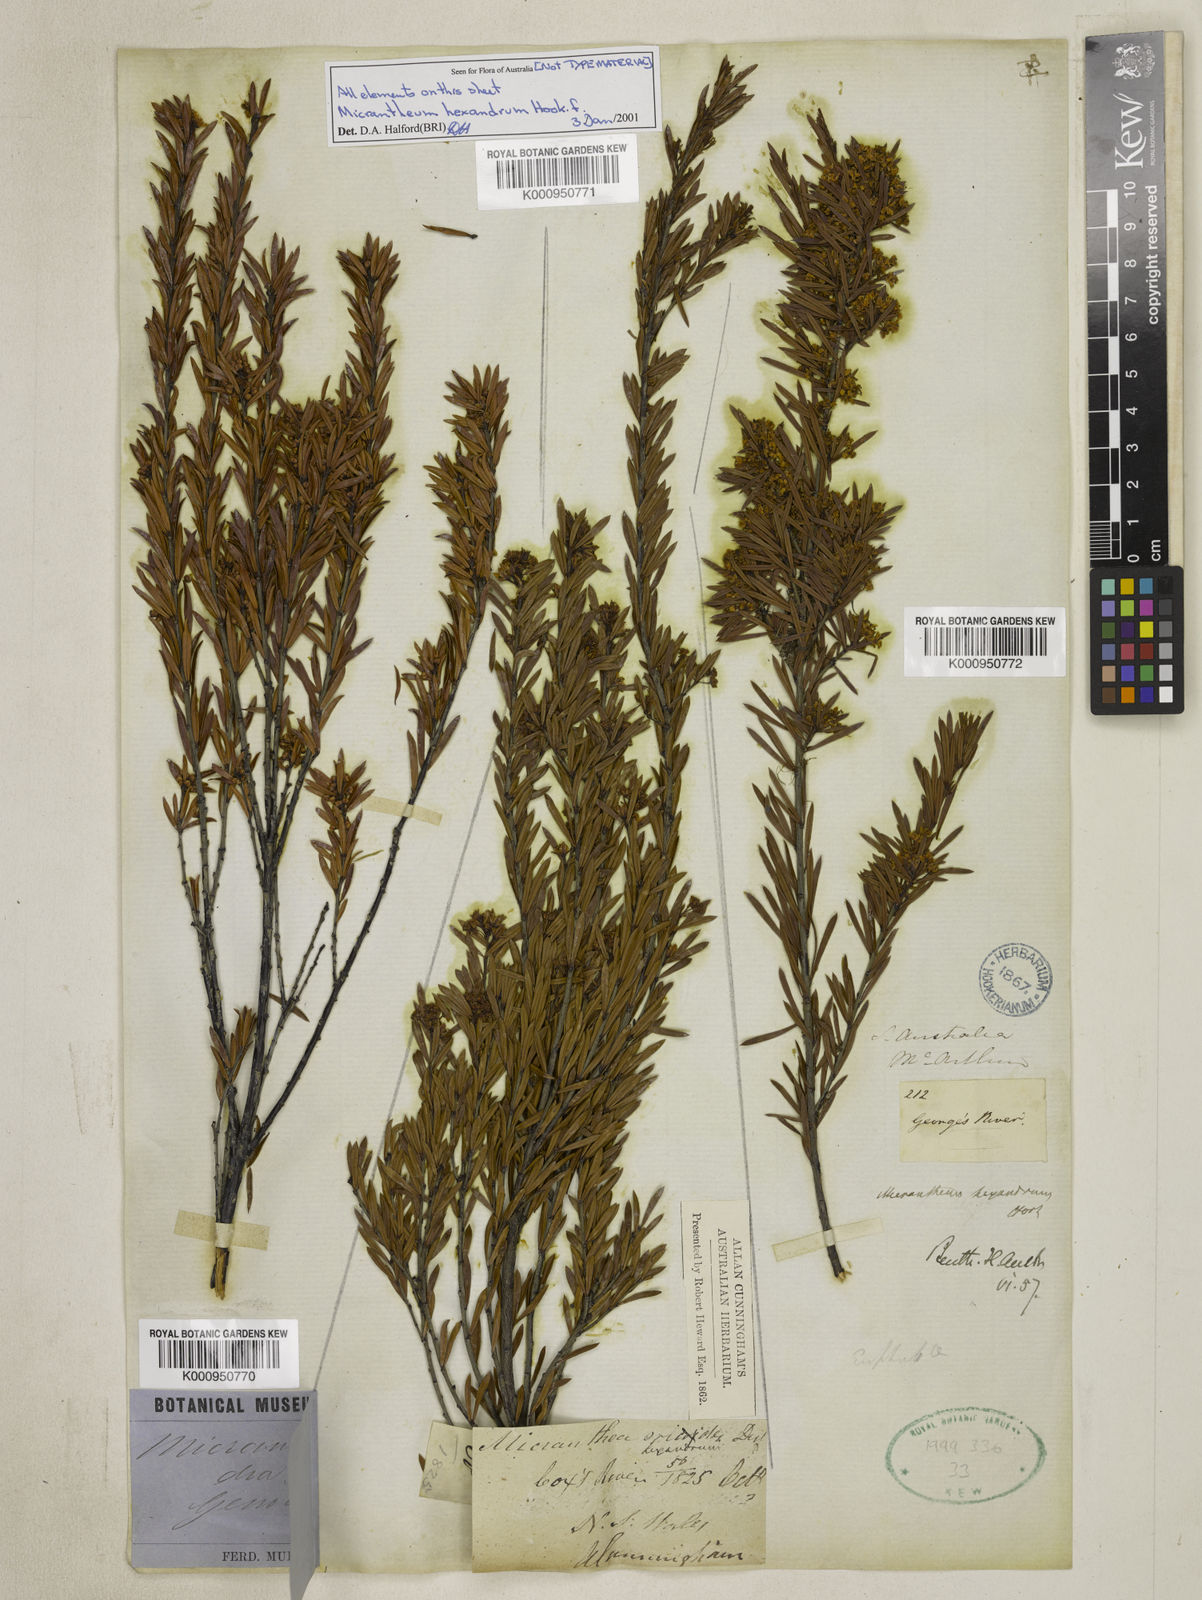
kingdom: Plantae
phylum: Tracheophyta
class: Magnoliopsida
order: Malpighiales
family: Picrodendraceae
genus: Micrantheum
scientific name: Micrantheum hexandrum
